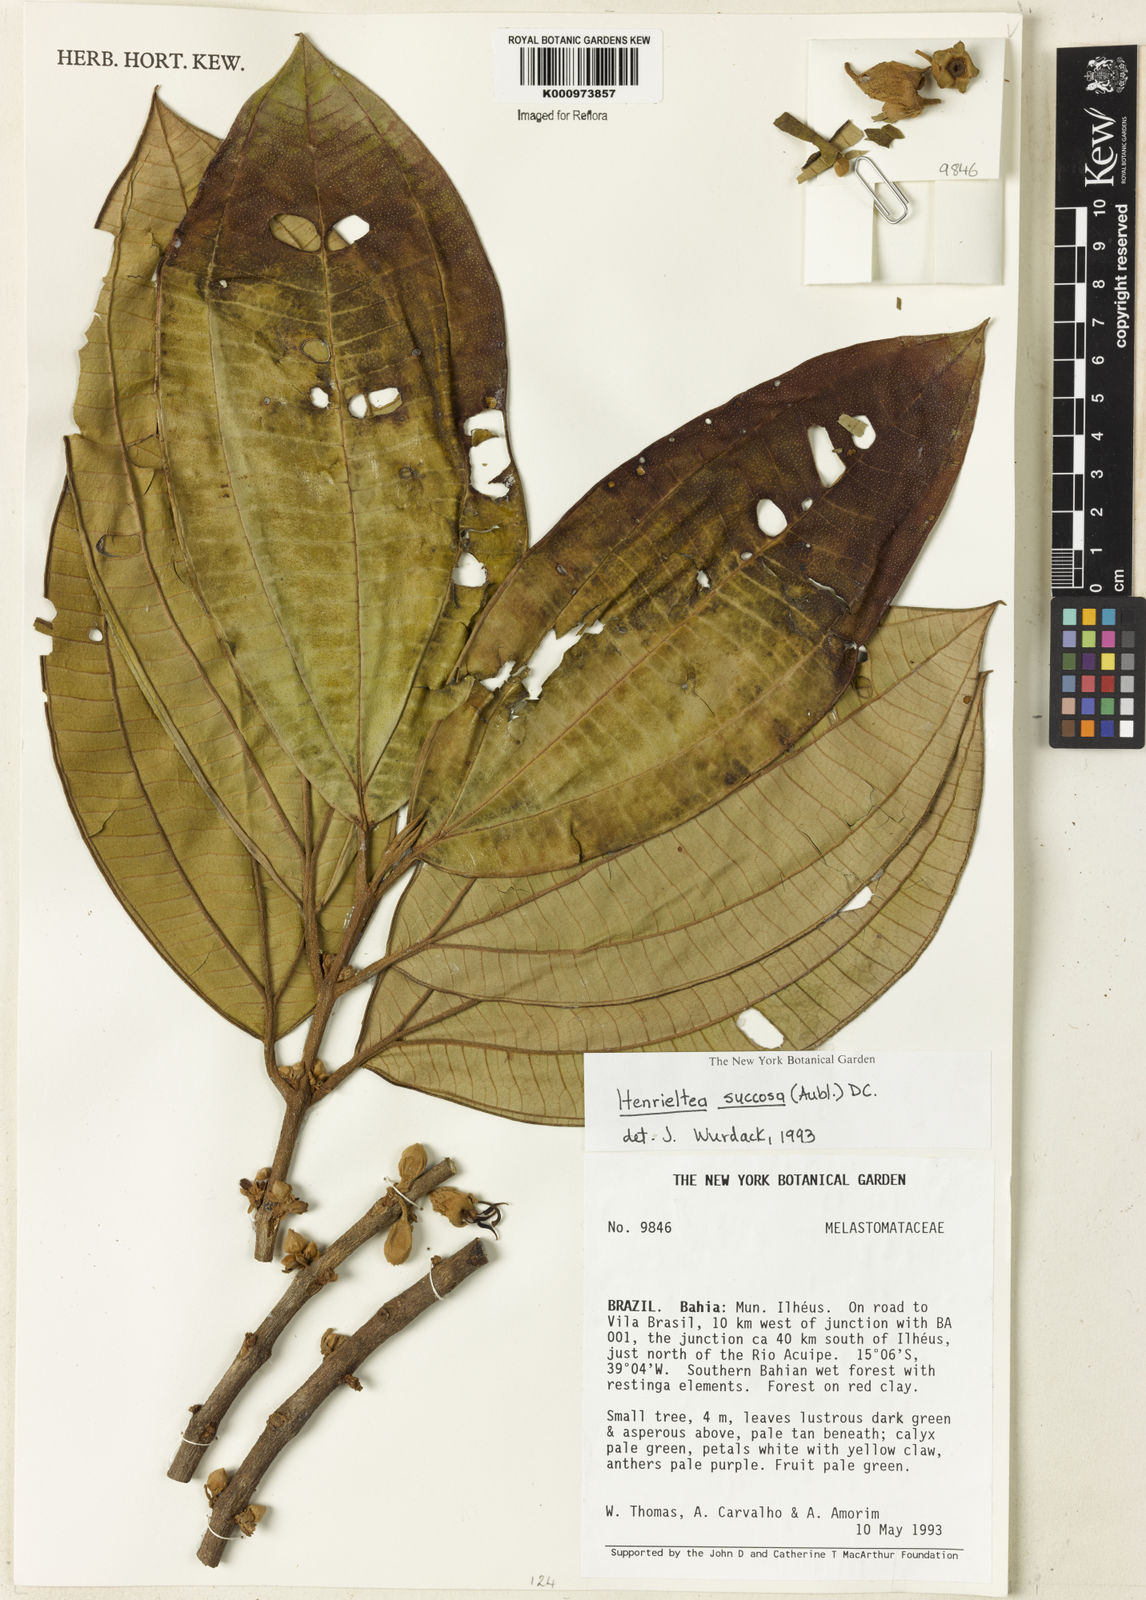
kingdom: Plantae
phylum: Tracheophyta
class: Magnoliopsida
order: Myrtales
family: Melastomataceae
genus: Henriettea
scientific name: Henriettea succosa
